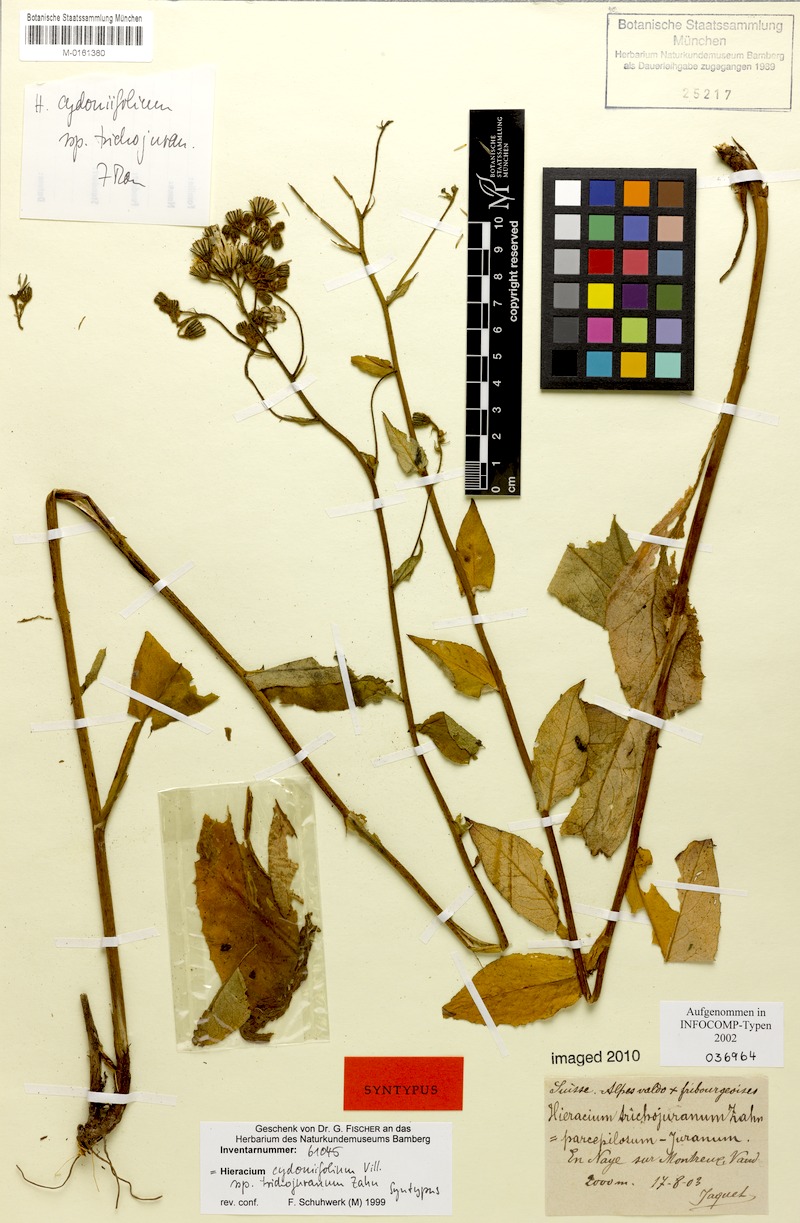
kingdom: Plantae
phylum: Tracheophyta
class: Magnoliopsida
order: Asterales
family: Asteraceae
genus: Hieracium
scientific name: Hieracium cydoniifolium
